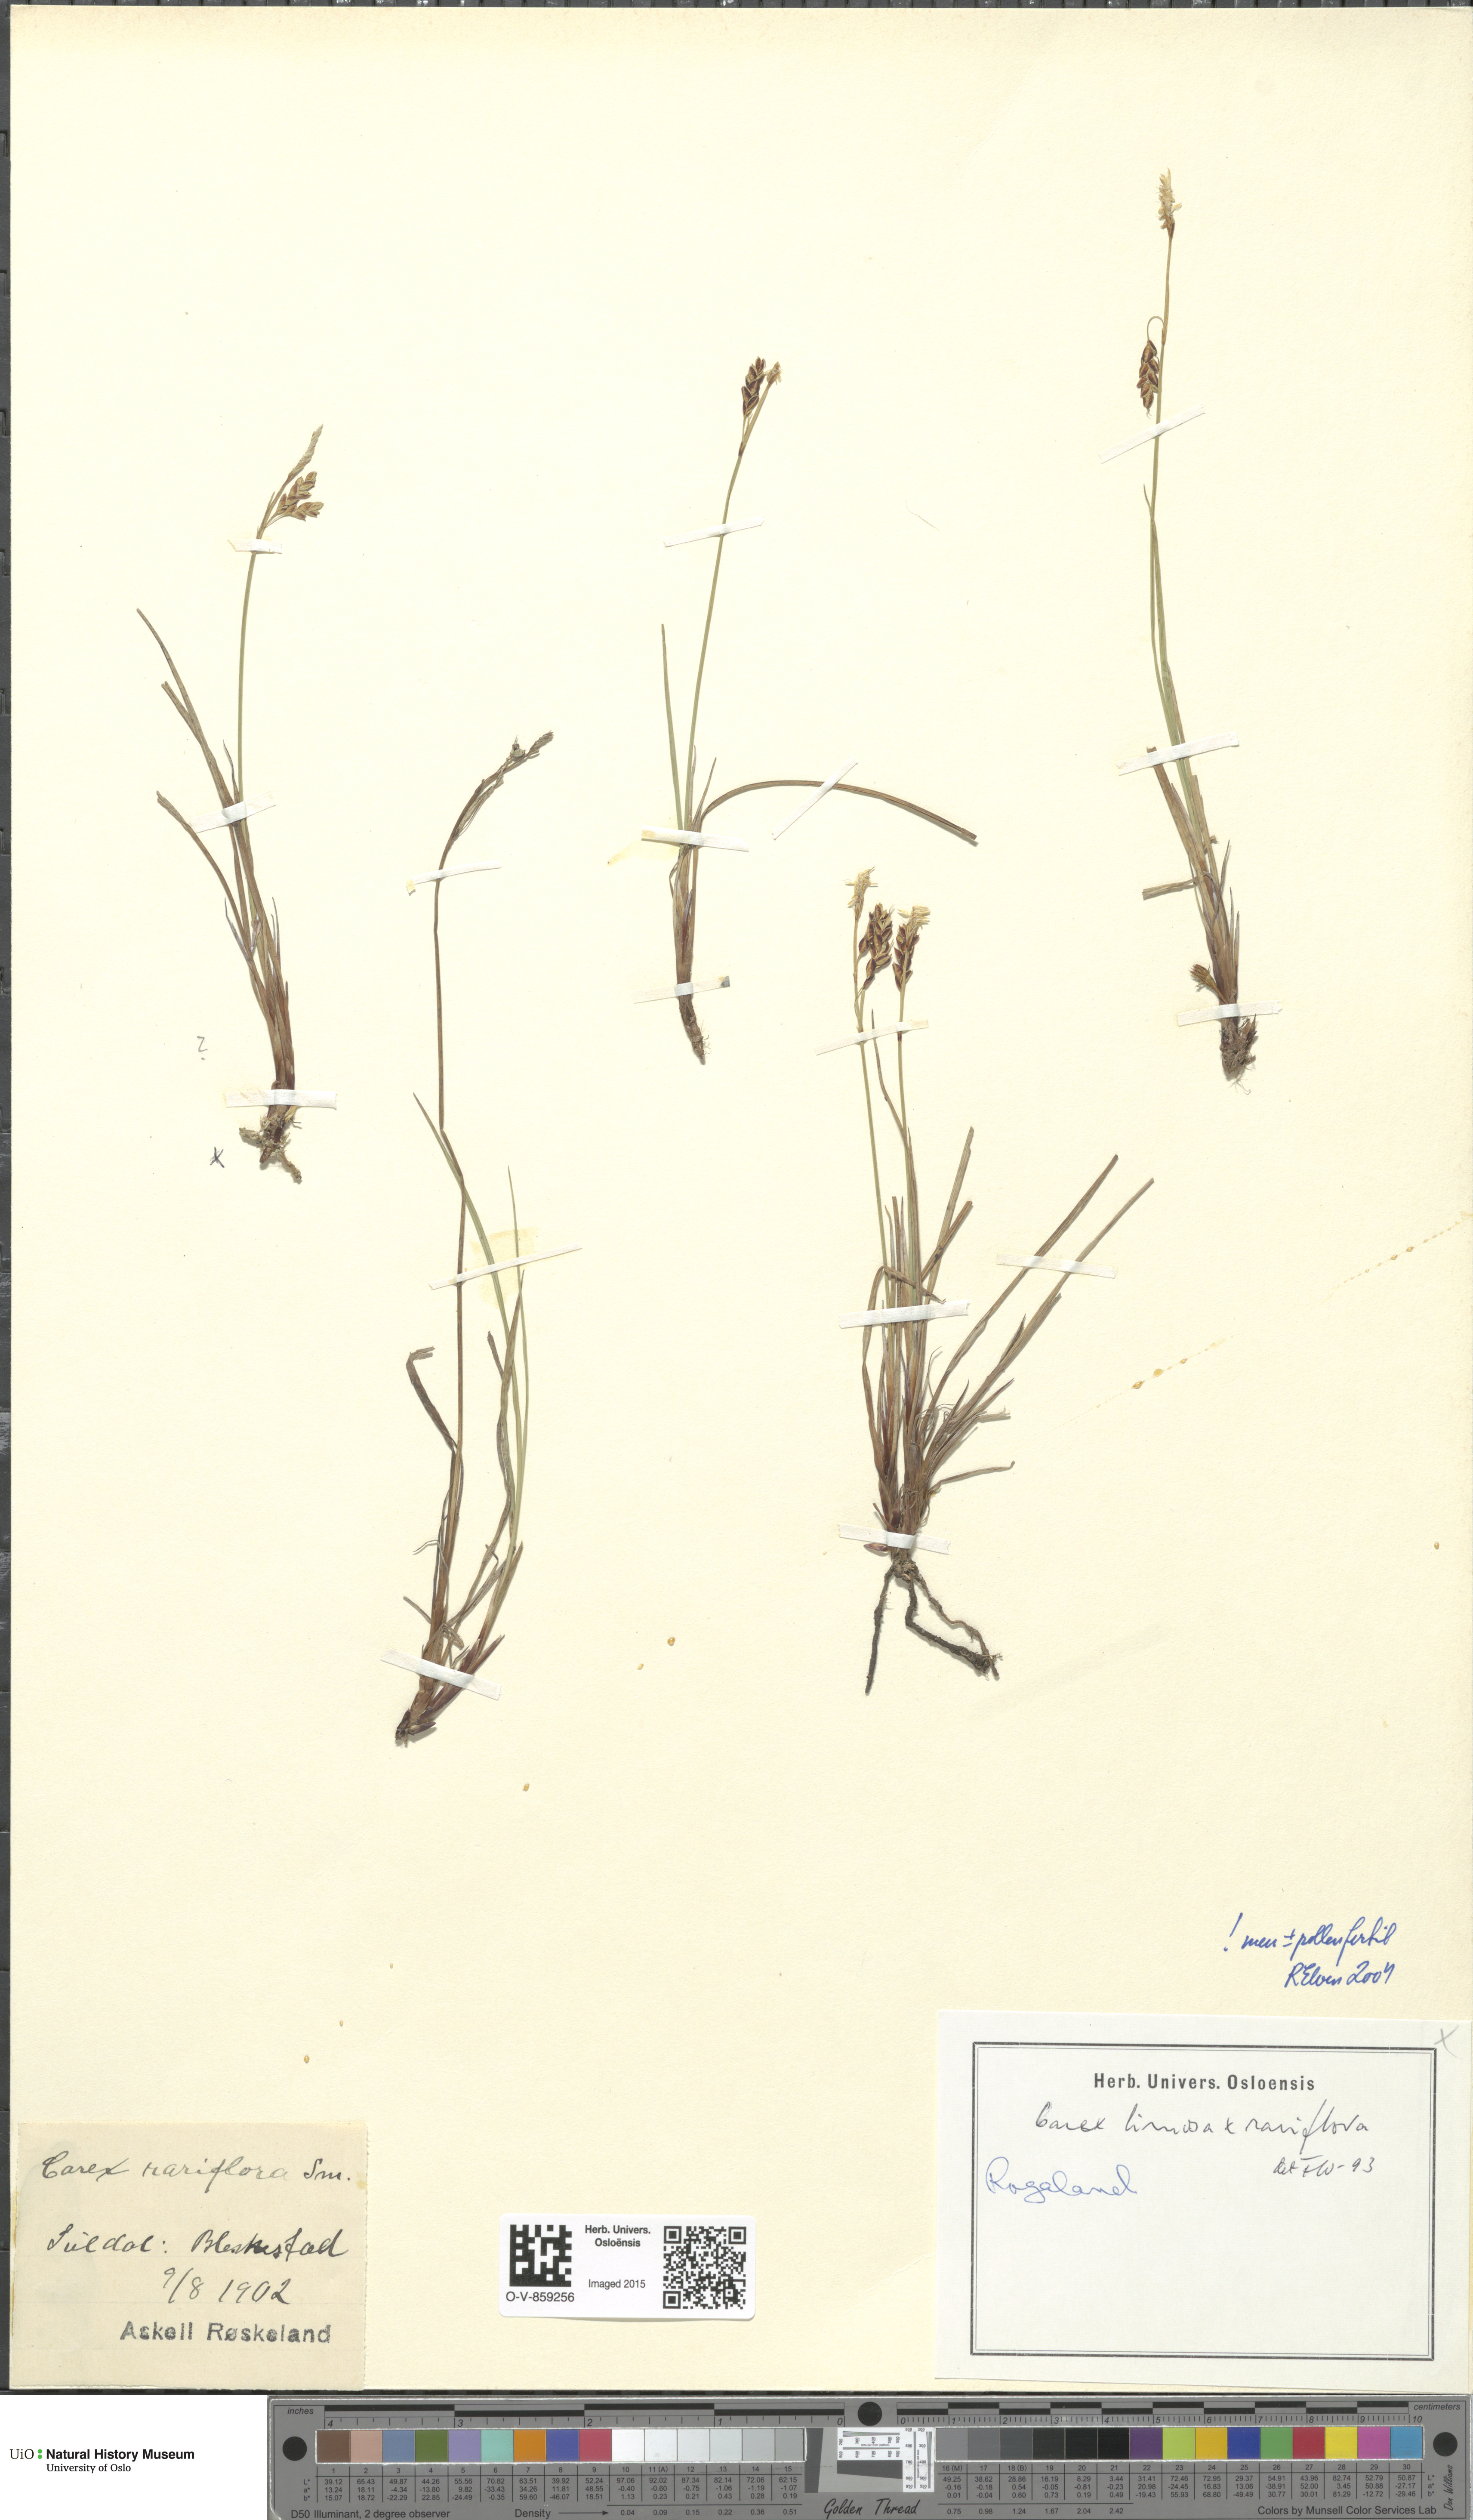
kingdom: Plantae
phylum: Tracheophyta
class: Liliopsida
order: Poales
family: Cyperaceae
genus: Carex
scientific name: Carex
